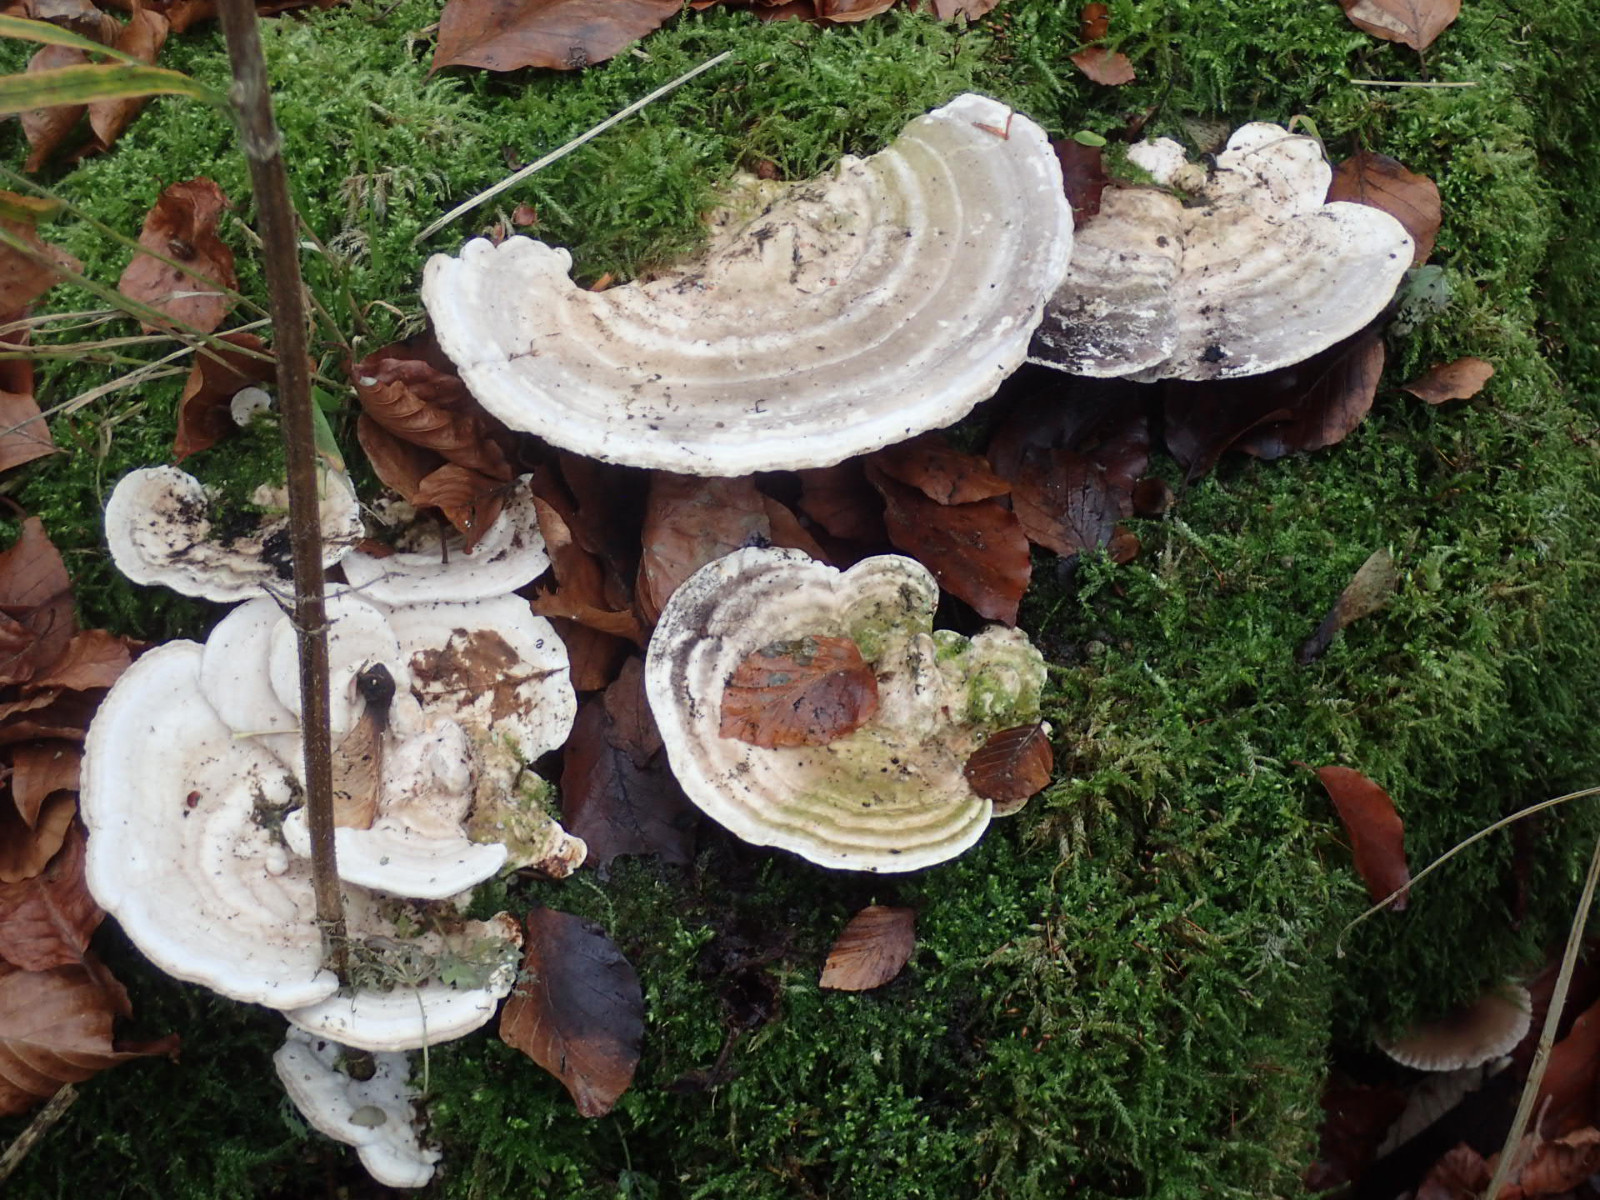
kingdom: Fungi
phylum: Basidiomycota
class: Agaricomycetes
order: Polyporales
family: Polyporaceae
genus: Trametes
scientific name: Trametes gibbosa
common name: puklet læderporesvamp
